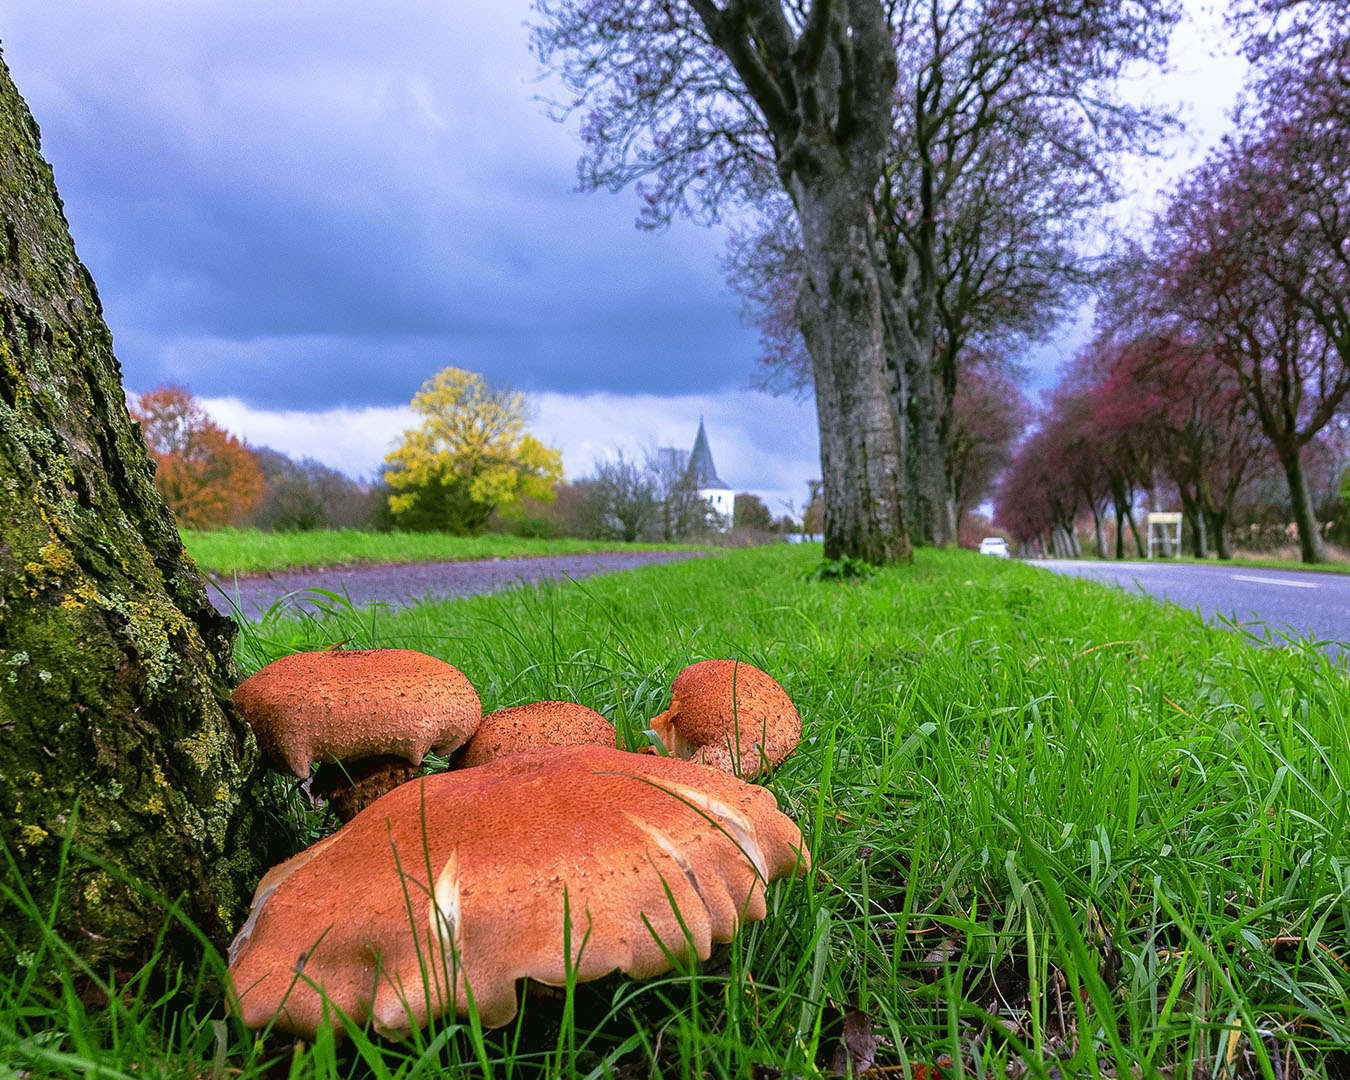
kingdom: Fungi
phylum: Basidiomycota
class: Agaricomycetes
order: Agaricales
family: Strophariaceae
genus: Pholiota
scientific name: Pholiota squarrosa
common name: krumskællet skælhat
